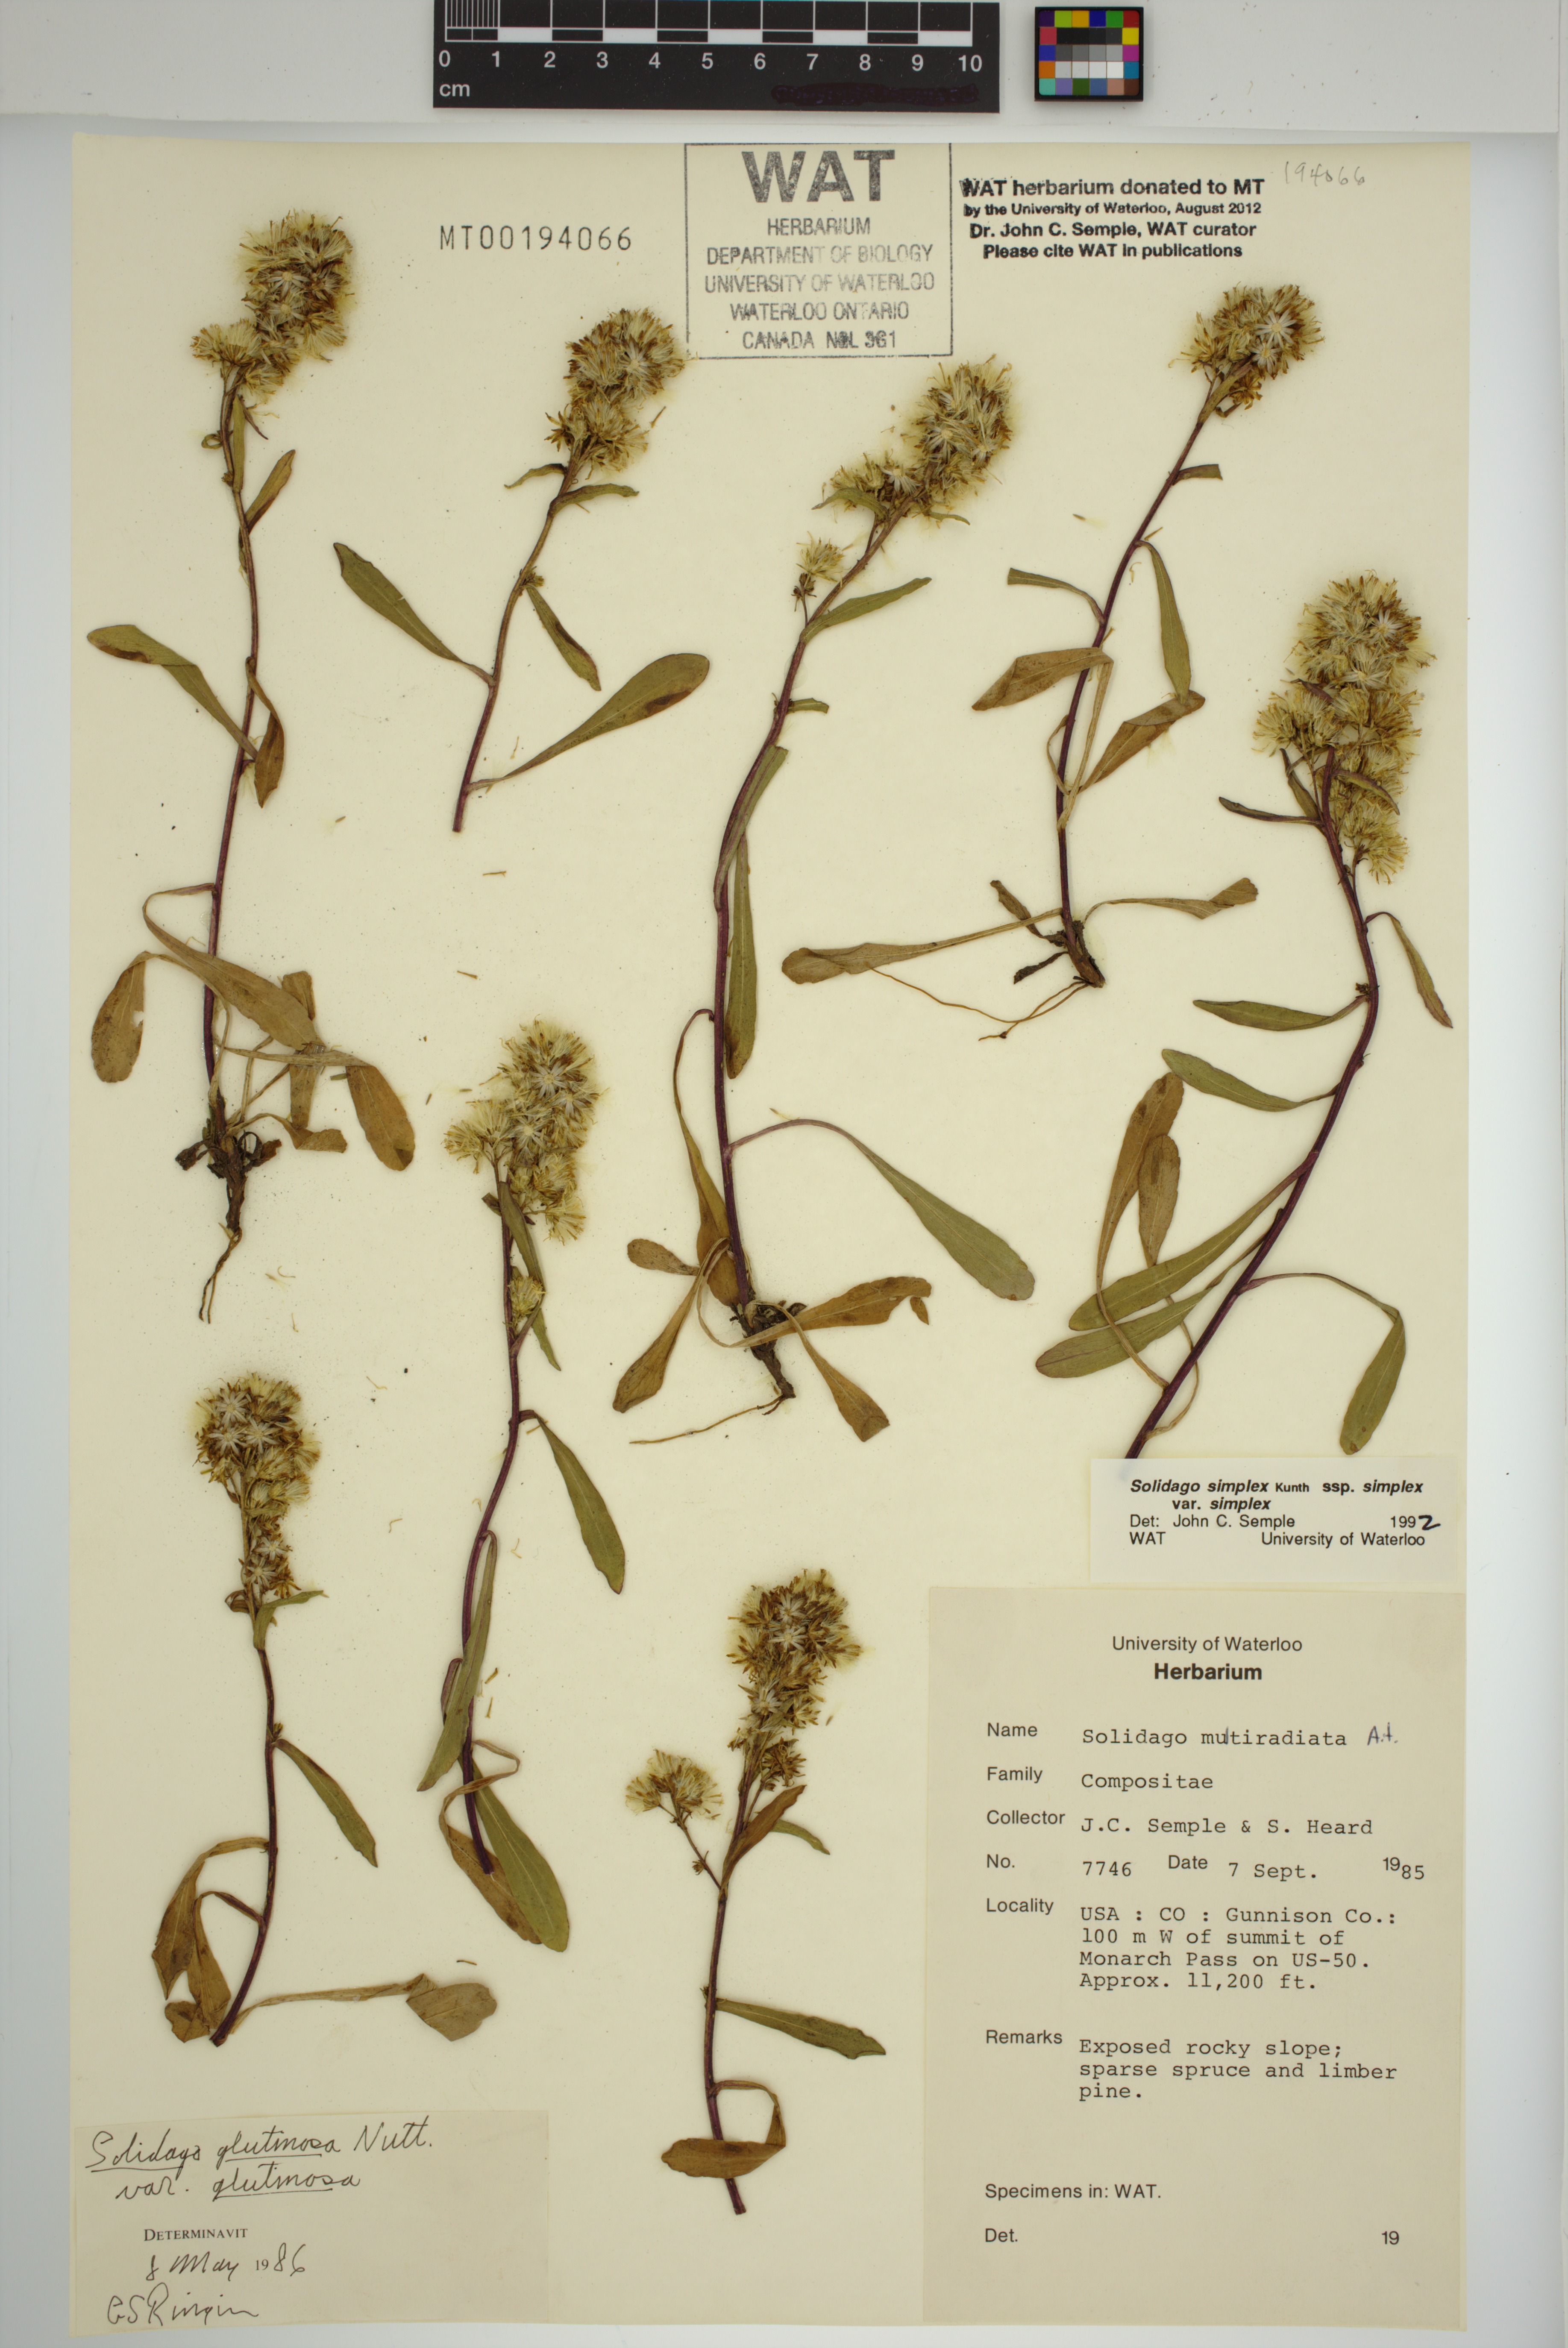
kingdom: Plantae
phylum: Tracheophyta
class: Magnoliopsida
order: Asterales
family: Asteraceae
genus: Solidago
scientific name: Solidago glutinosa
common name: Decumbent goldenrod
